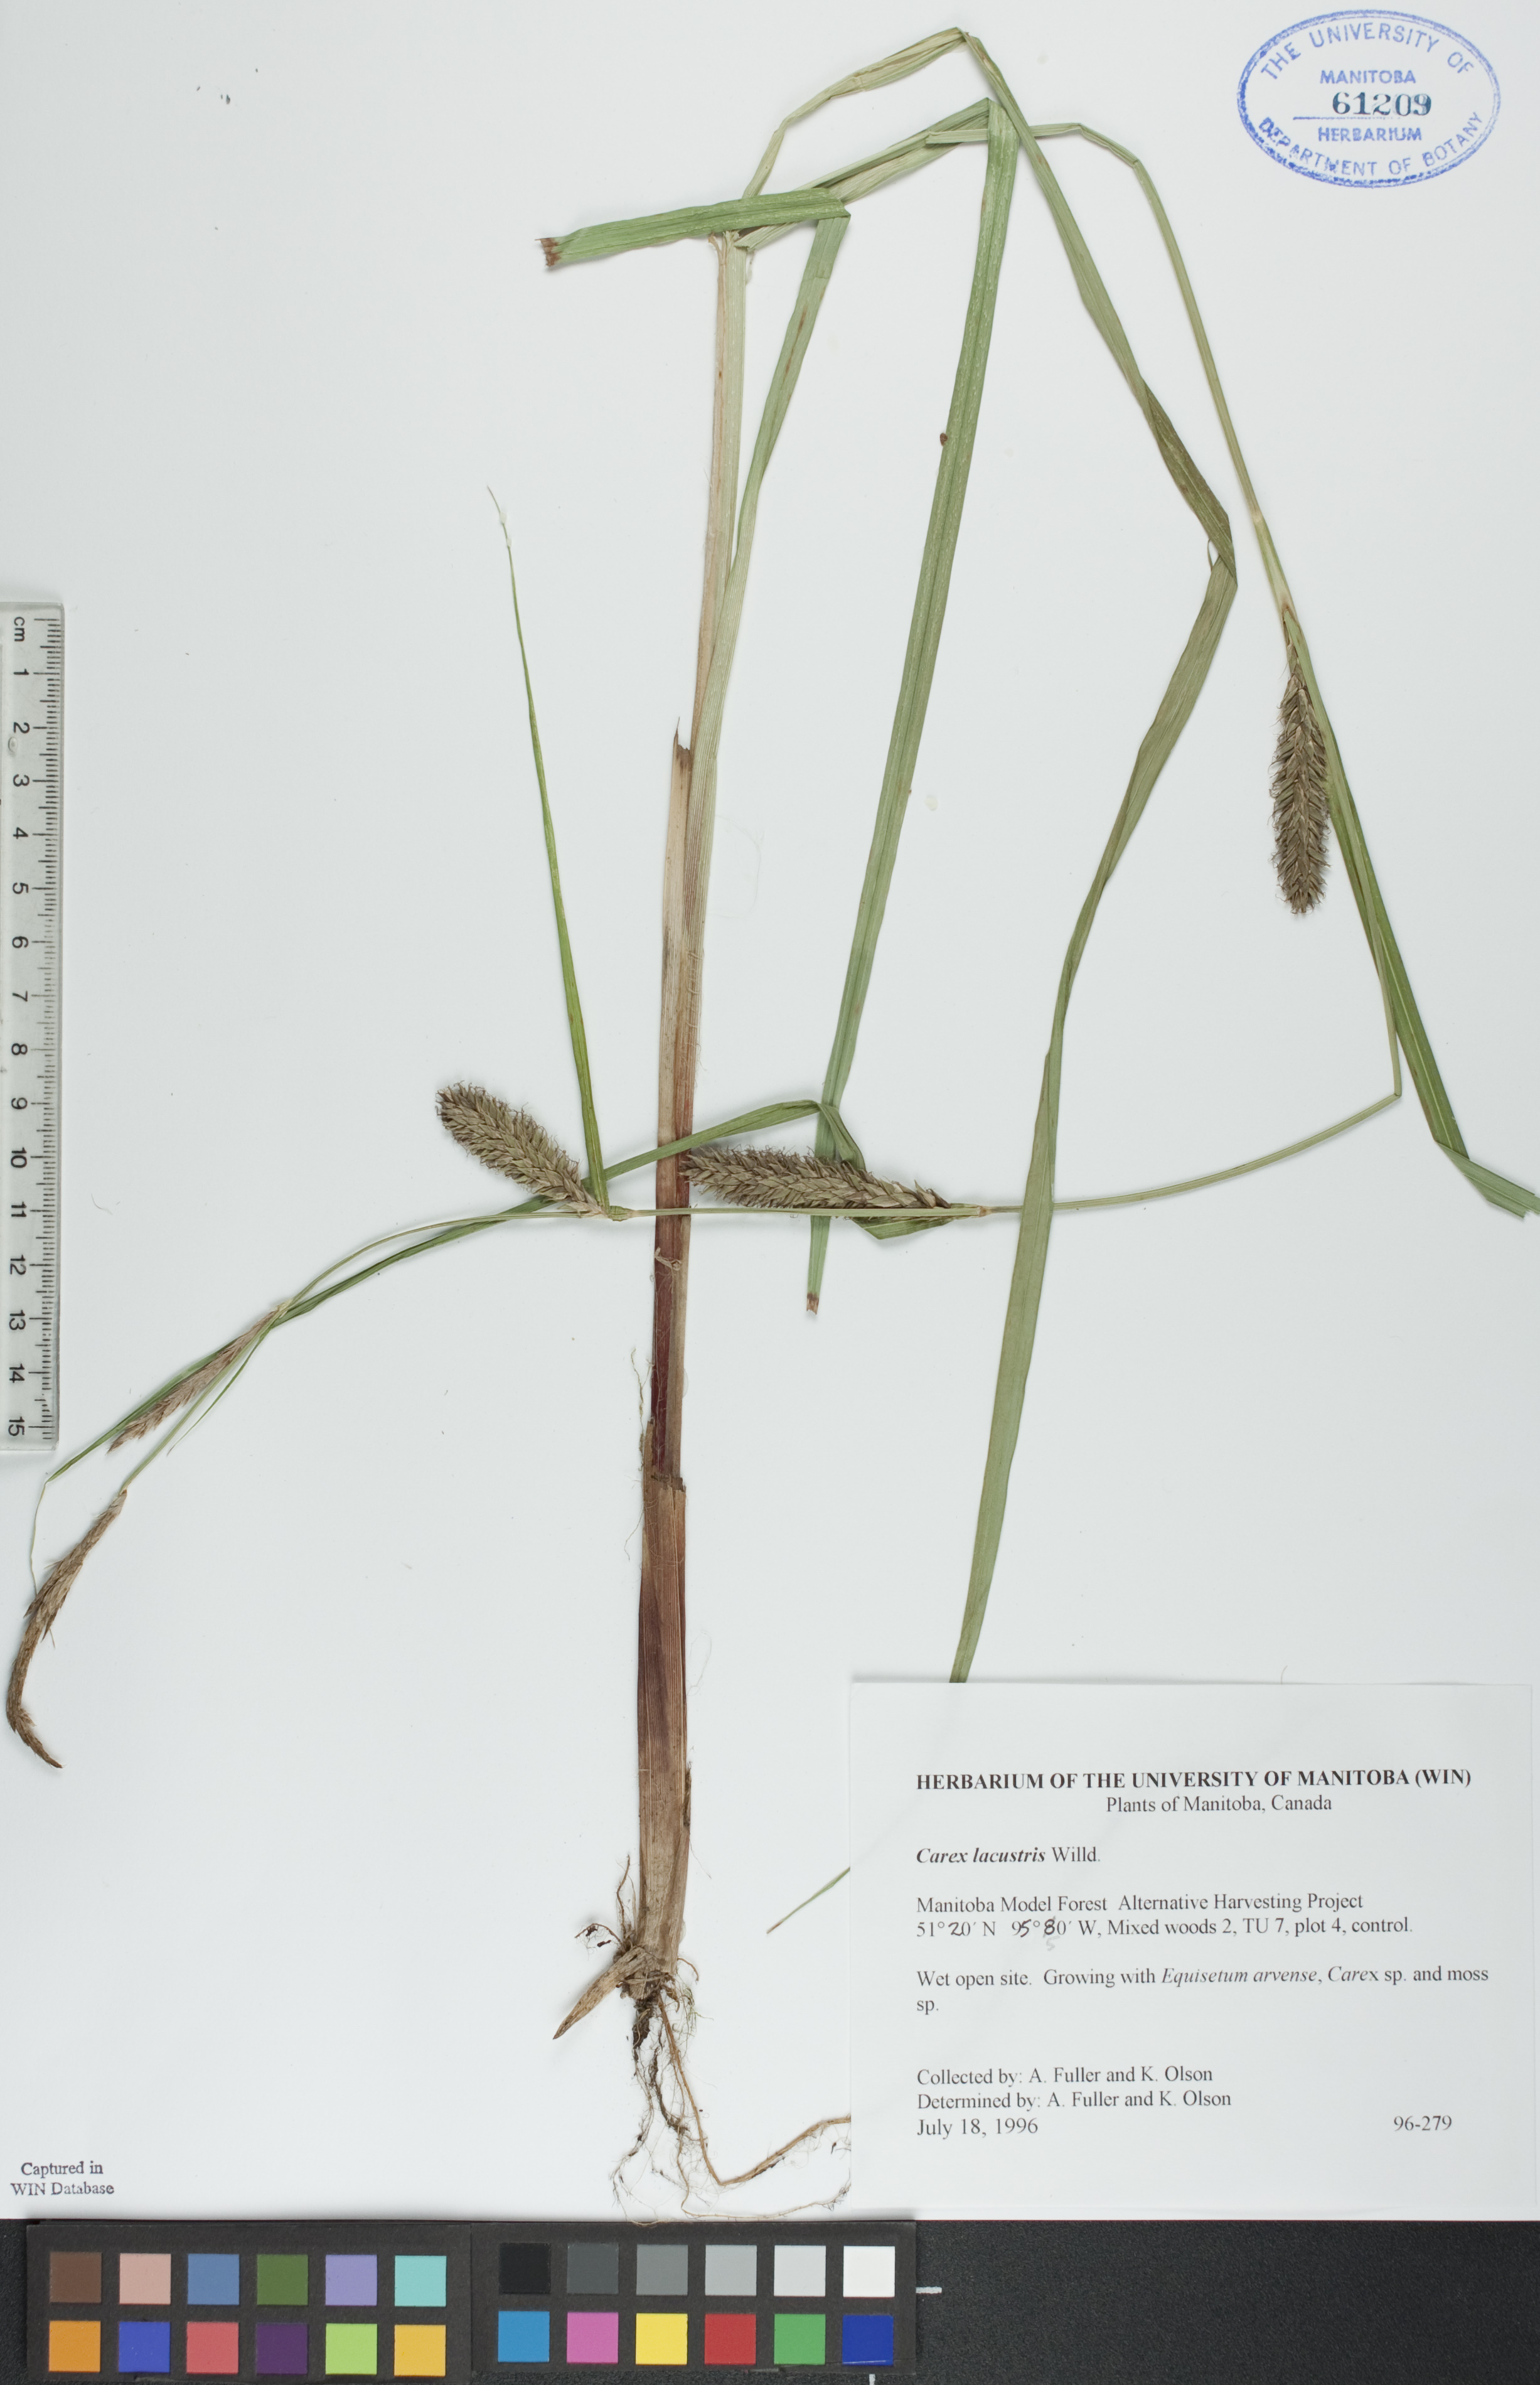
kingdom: Plantae
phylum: Tracheophyta
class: Liliopsida
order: Poales
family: Cyperaceae
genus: Carex
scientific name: Carex lacustris
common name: Common lake sedge
